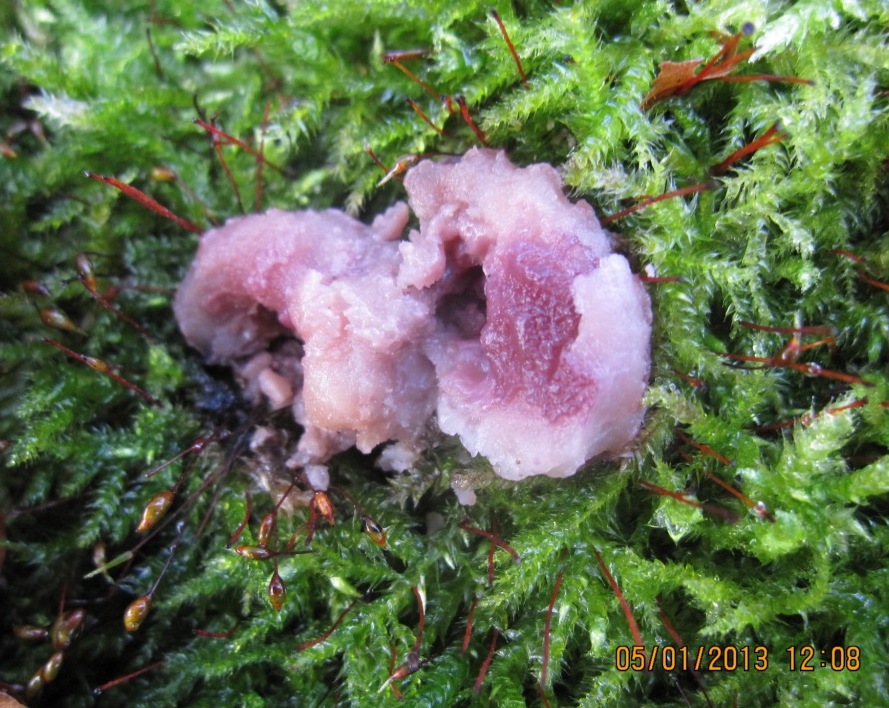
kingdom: Fungi
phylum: Ascomycota
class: Leotiomycetes
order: Helotiales
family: Gelatinodiscaceae
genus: Ascocoryne
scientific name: Ascocoryne cylichnium
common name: stor sejskive
